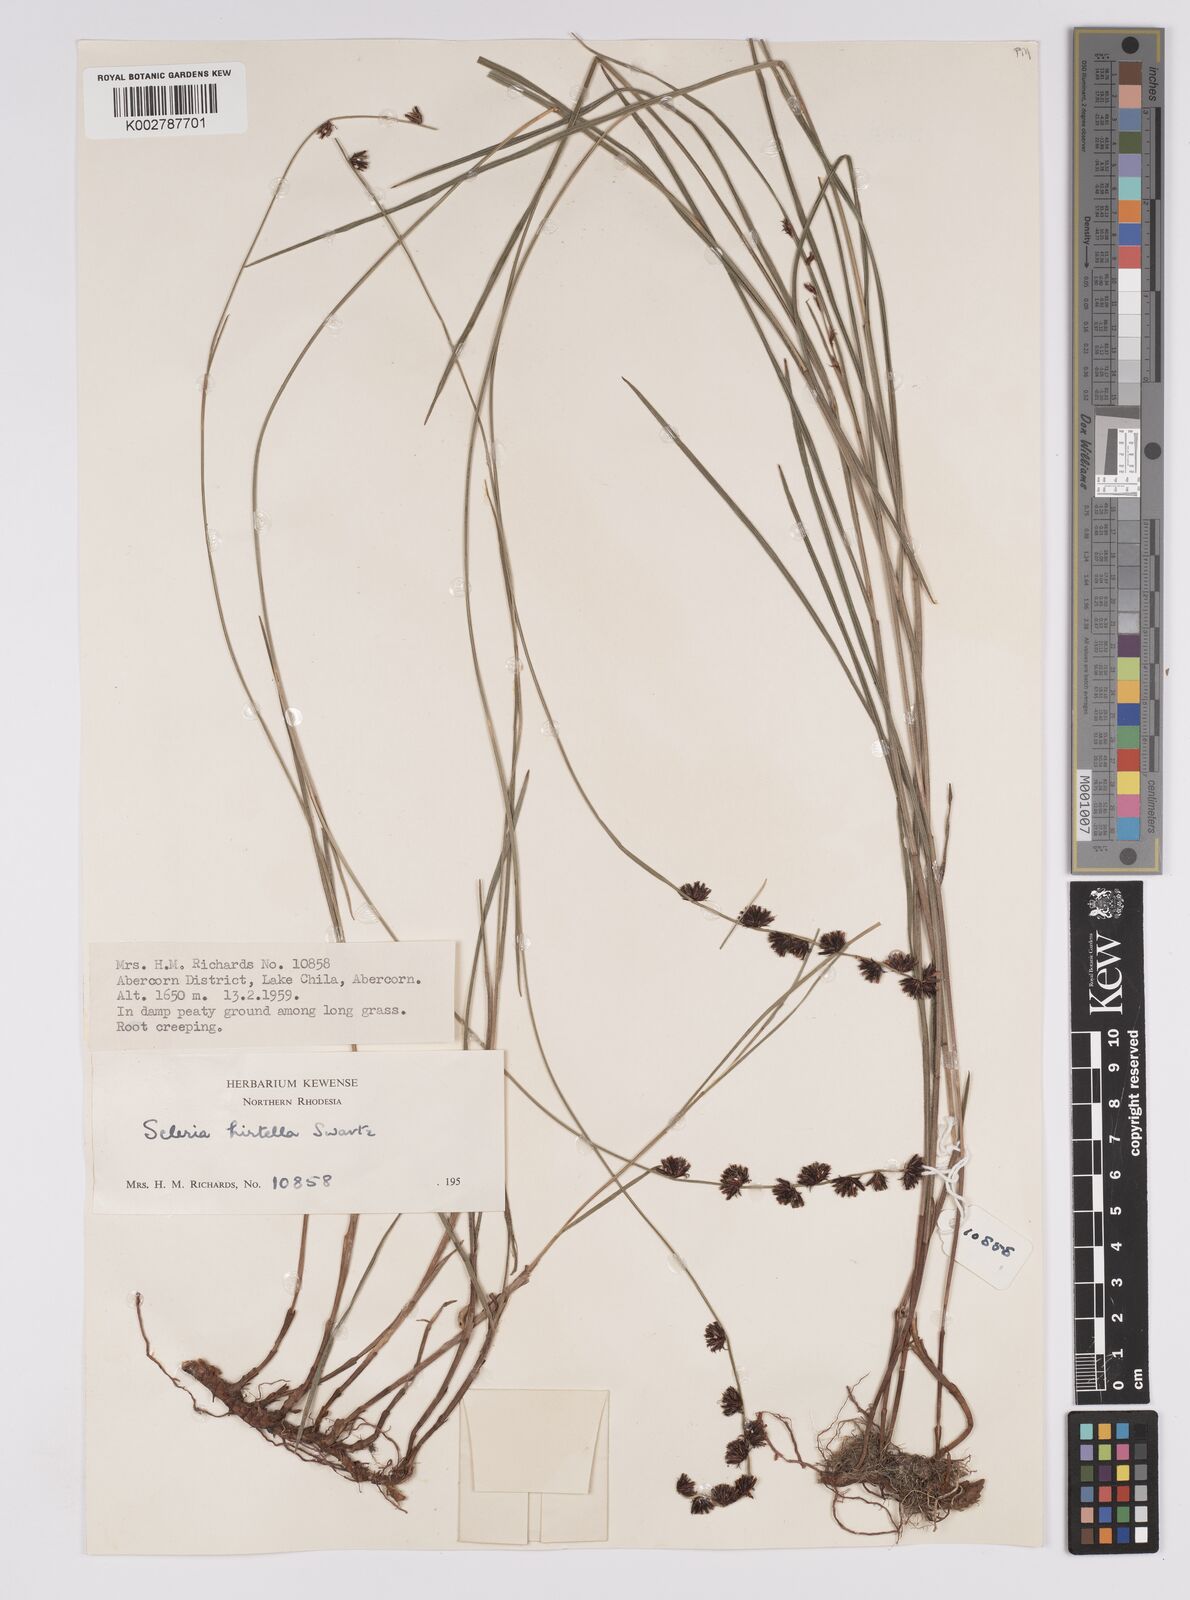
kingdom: Plantae
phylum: Tracheophyta
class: Liliopsida
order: Poales
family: Cyperaceae
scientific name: Cyperaceae
